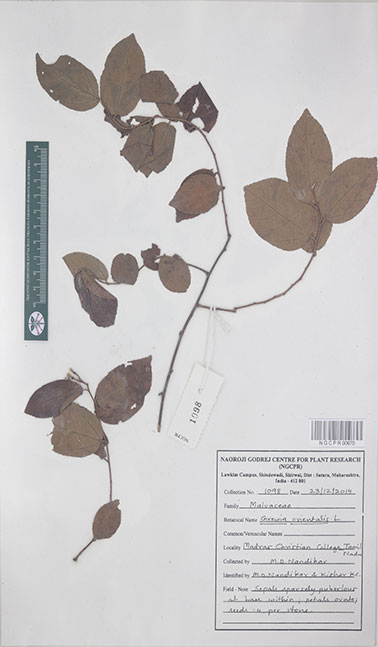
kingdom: Plantae
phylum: Tracheophyta
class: Magnoliopsida
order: Malvales
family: Malvaceae
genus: Grewia
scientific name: Grewia orientalis
